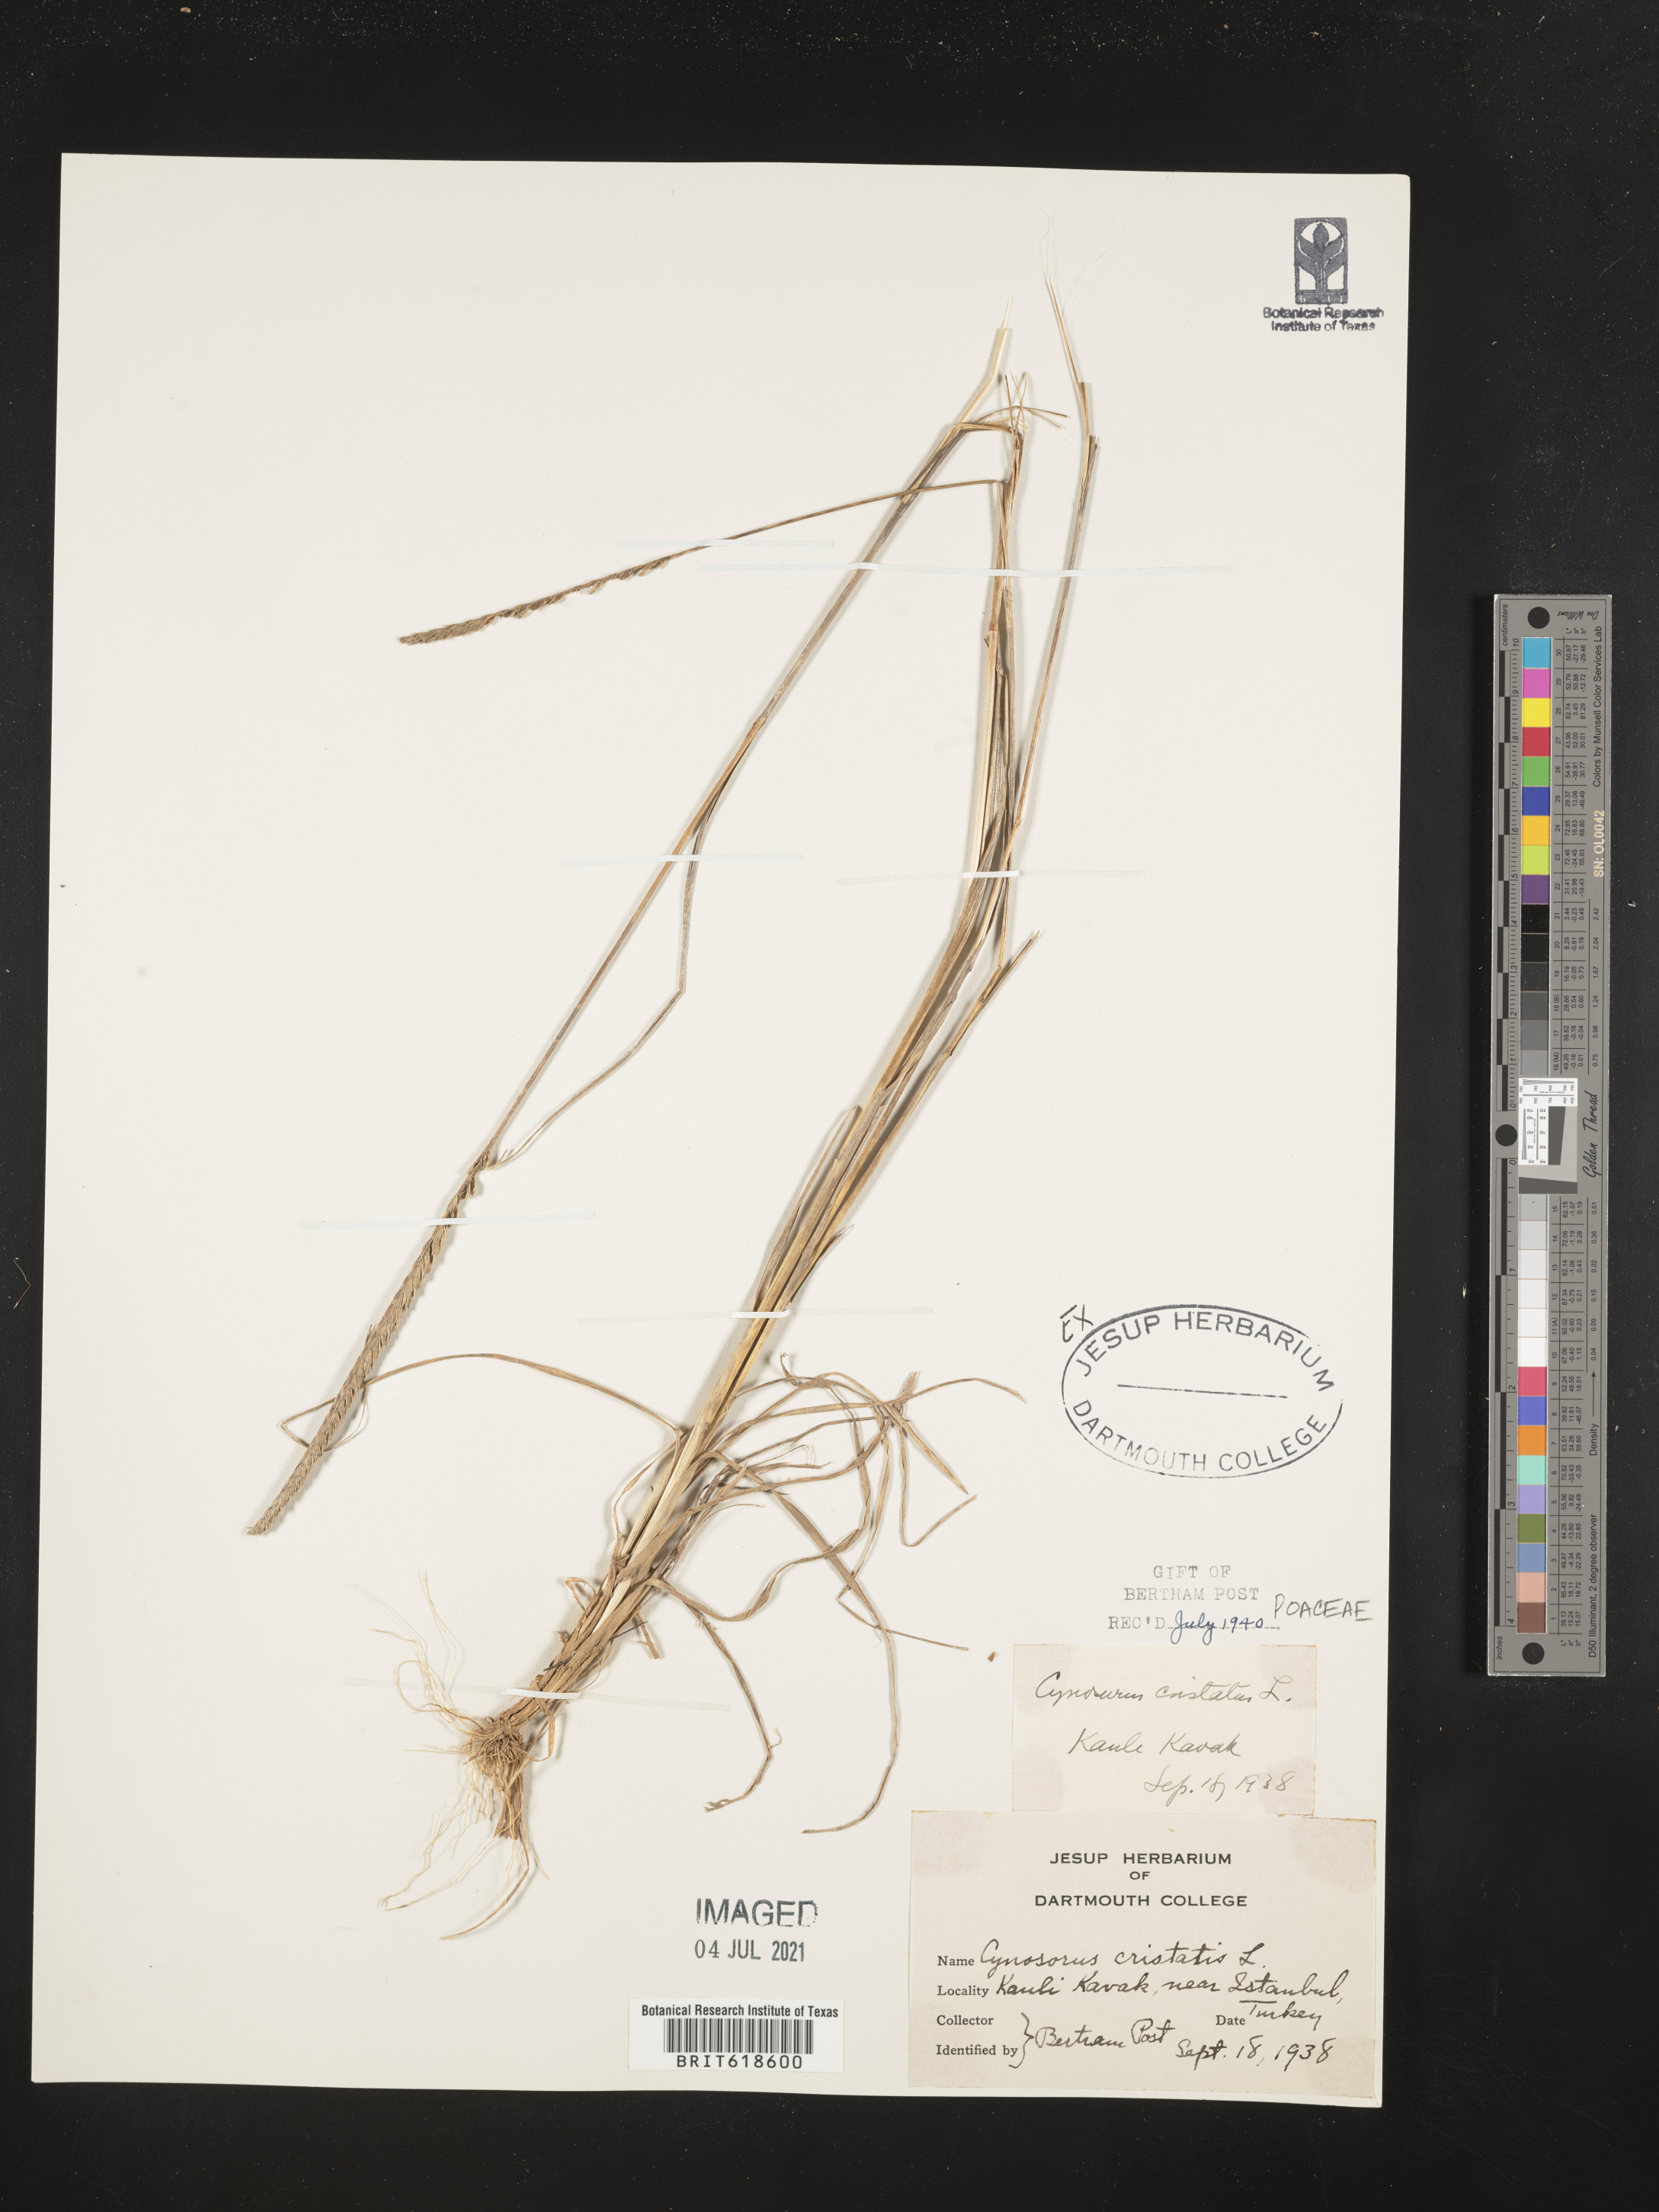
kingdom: Plantae
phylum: Tracheophyta
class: Liliopsida
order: Poales
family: Poaceae
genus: Cynosurus
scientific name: Cynosurus cristatus
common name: Crested dog's-tail
